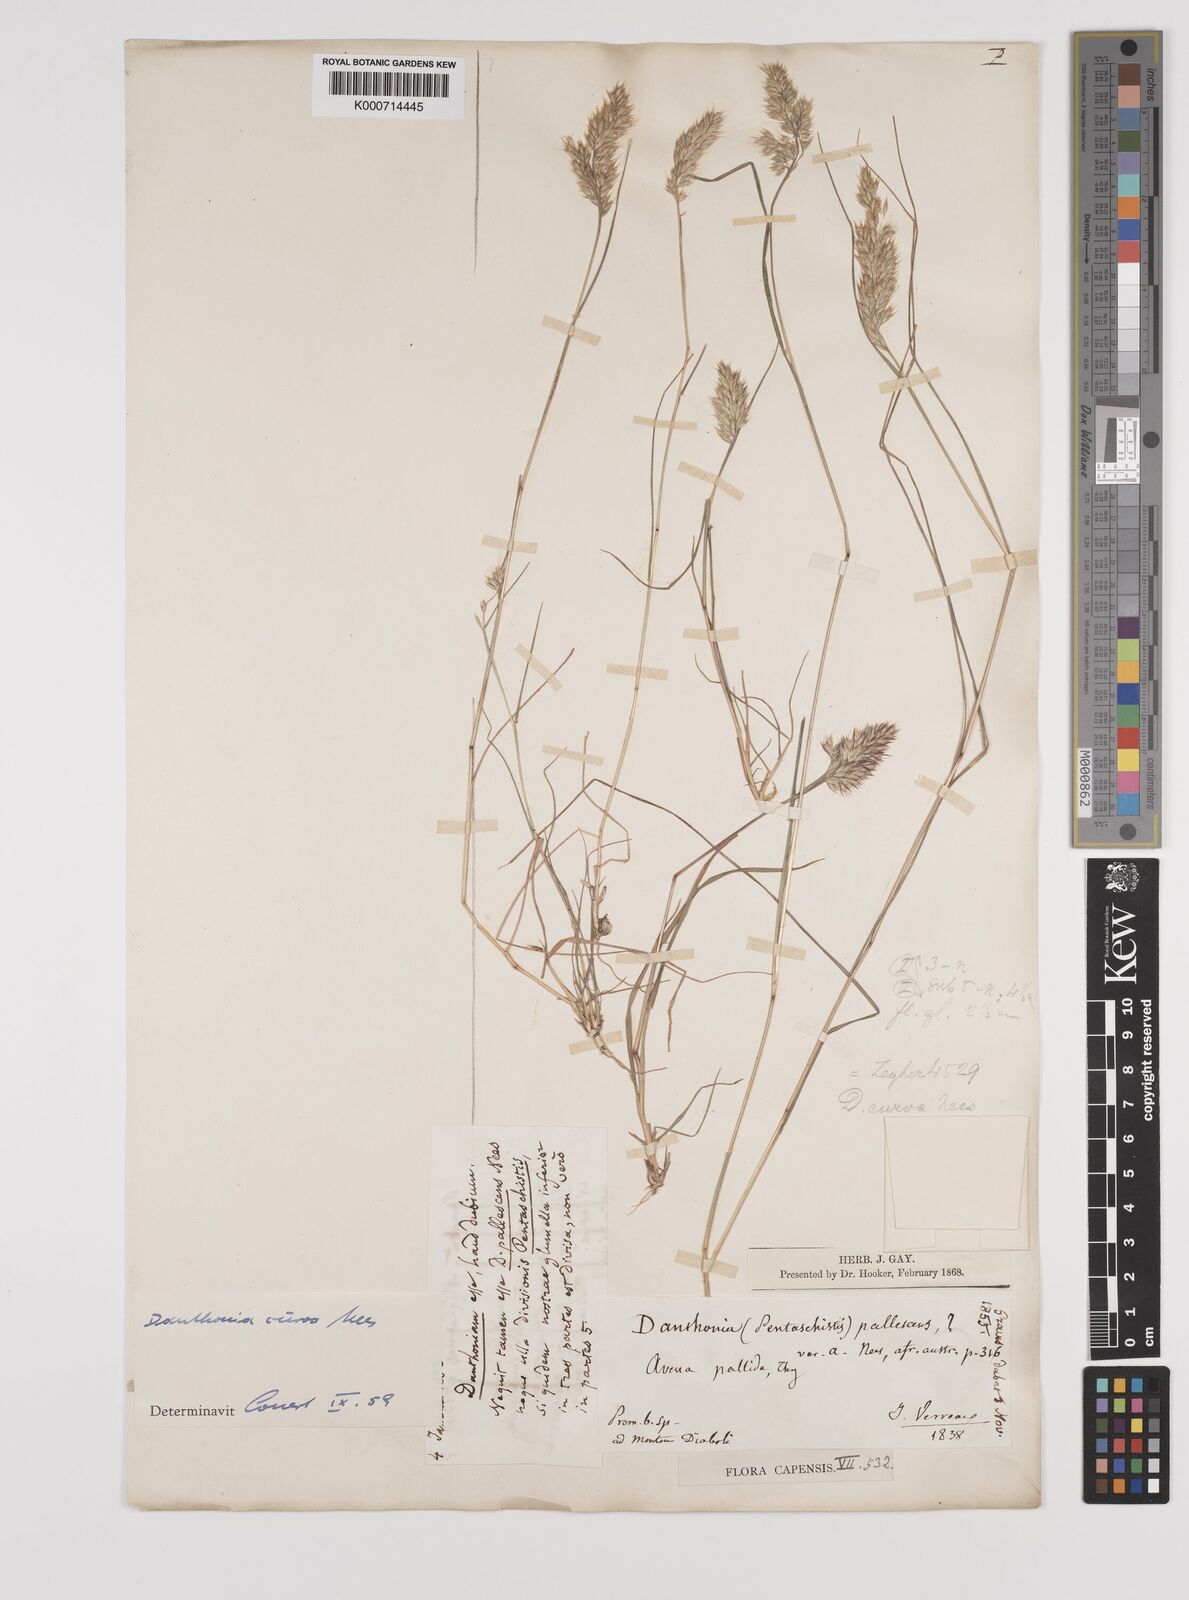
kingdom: Plantae
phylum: Tracheophyta
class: Liliopsida
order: Poales
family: Poaceae
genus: Rytidosperma
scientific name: Rytidosperma
